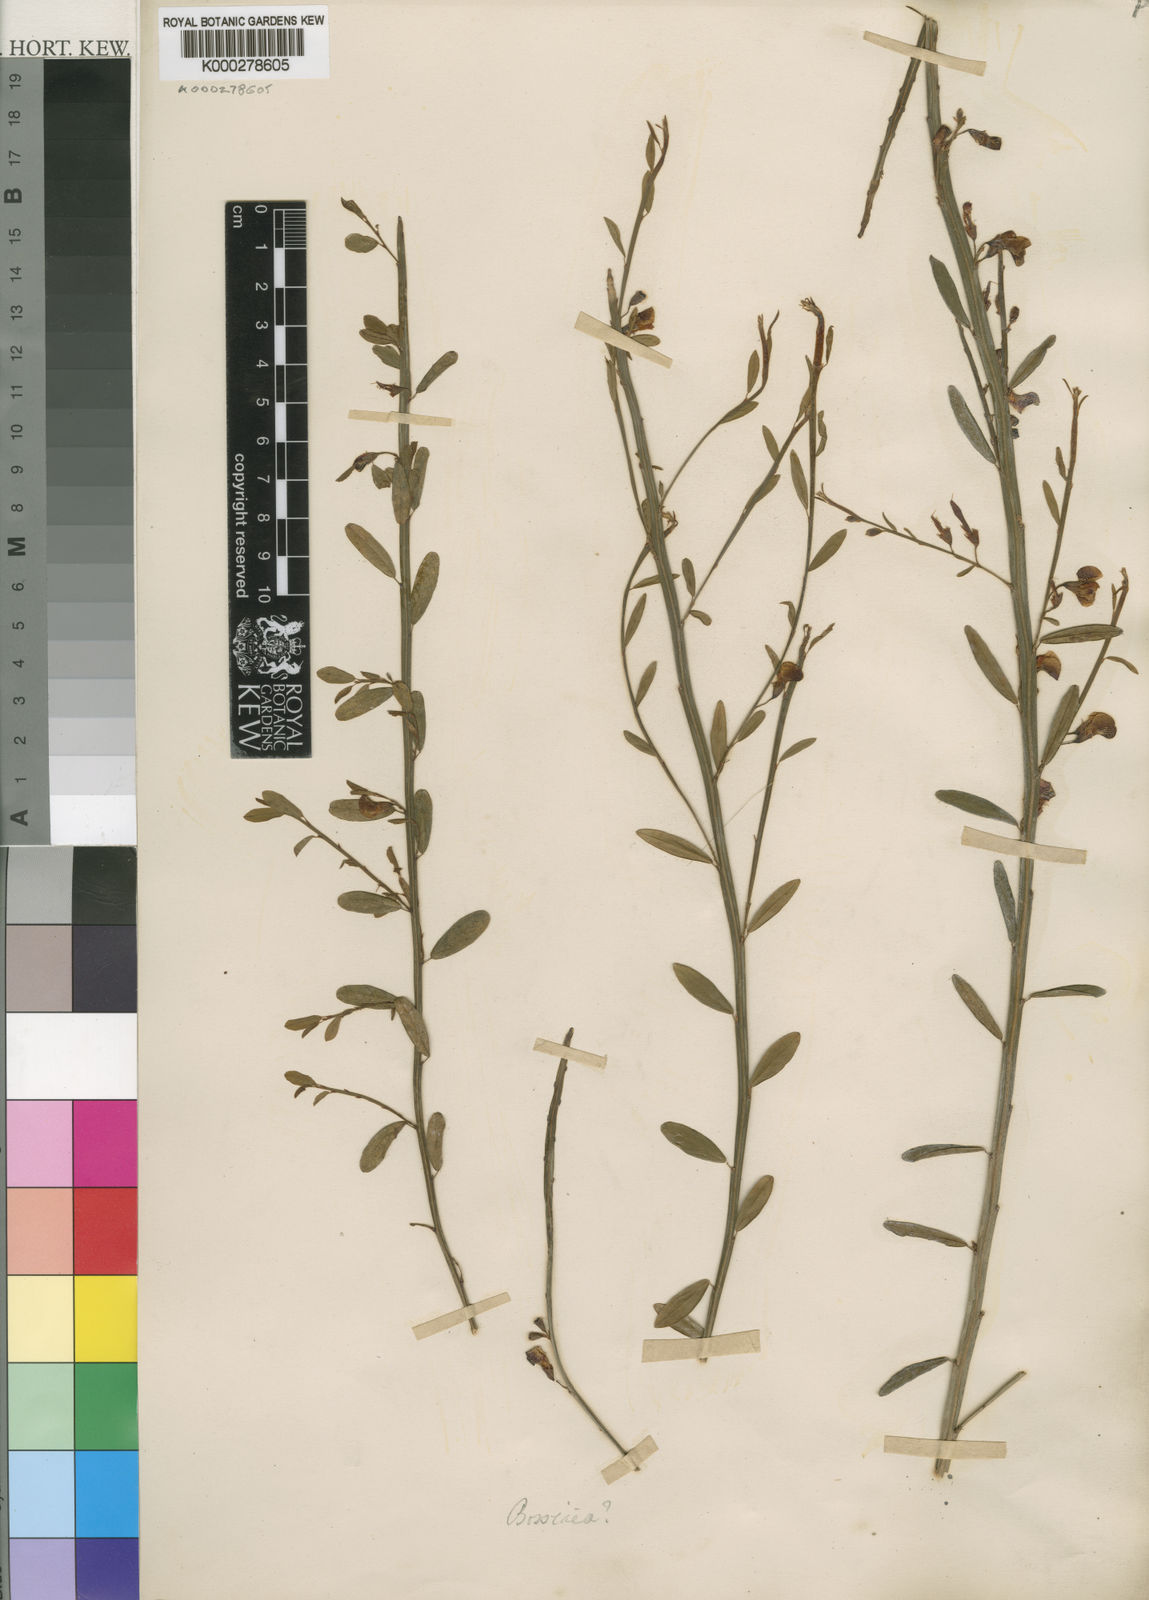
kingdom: Plantae
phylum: Tracheophyta
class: Magnoliopsida
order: Fabales
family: Fabaceae
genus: Bossiaea
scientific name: Bossiaea
